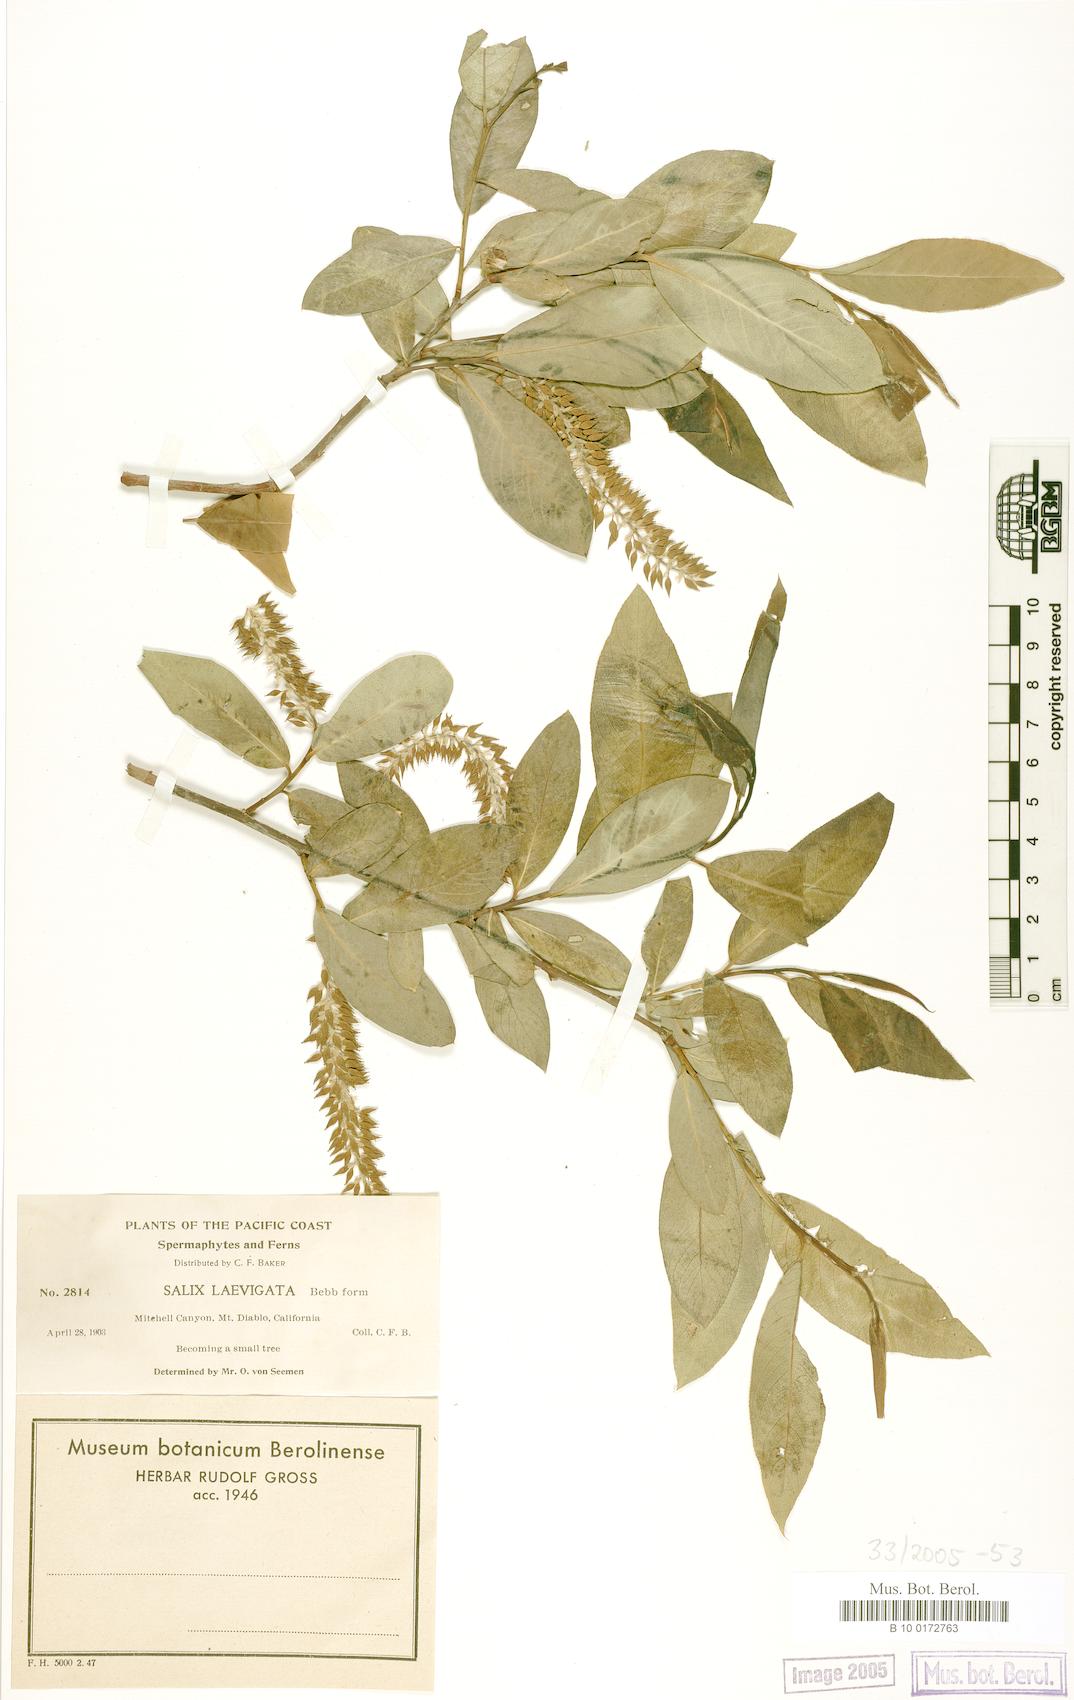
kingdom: Plantae
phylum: Tracheophyta
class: Magnoliopsida
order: Malpighiales
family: Salicaceae
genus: Salix
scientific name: Salix laevigata
